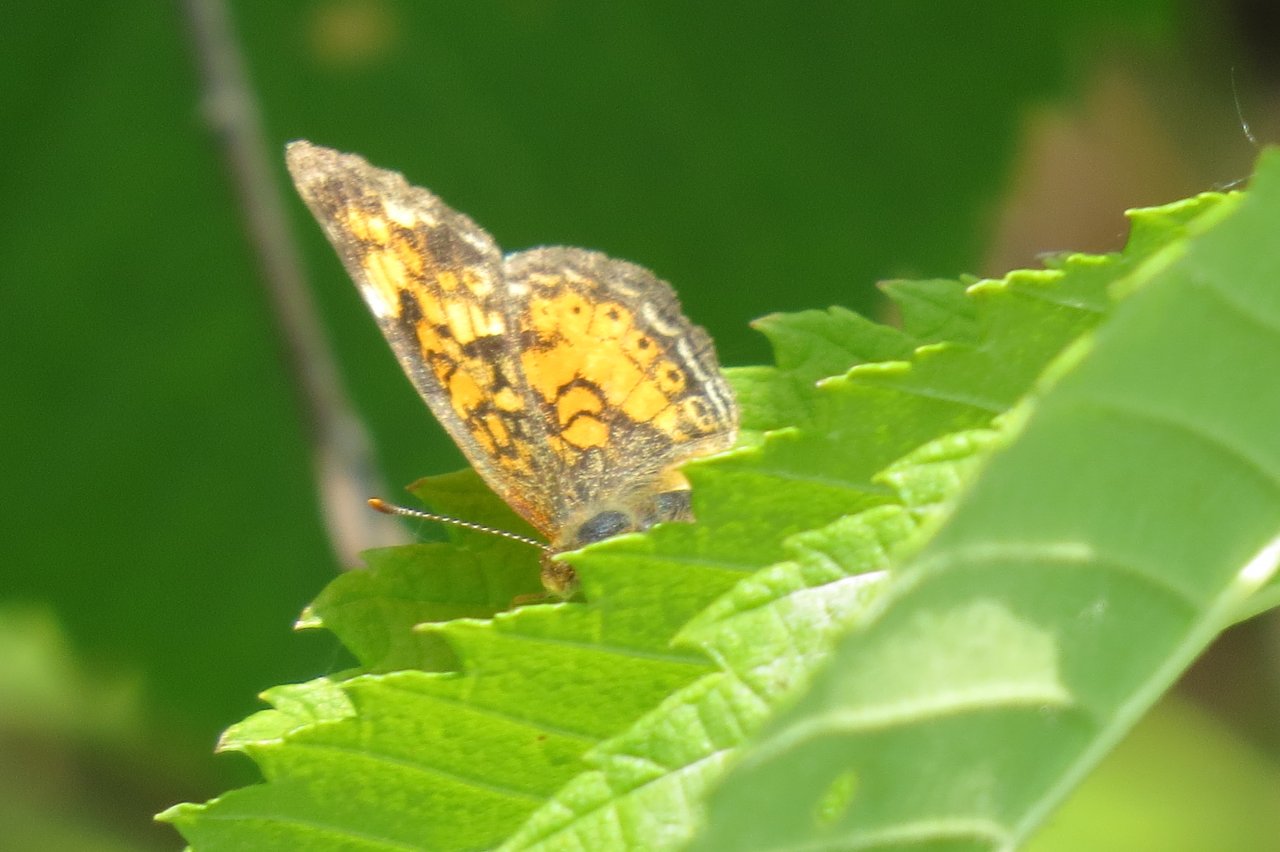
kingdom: Animalia
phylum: Arthropoda
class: Insecta
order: Lepidoptera
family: Nymphalidae
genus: Phyciodes
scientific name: Phyciodes tharos
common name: Northern Crescent
